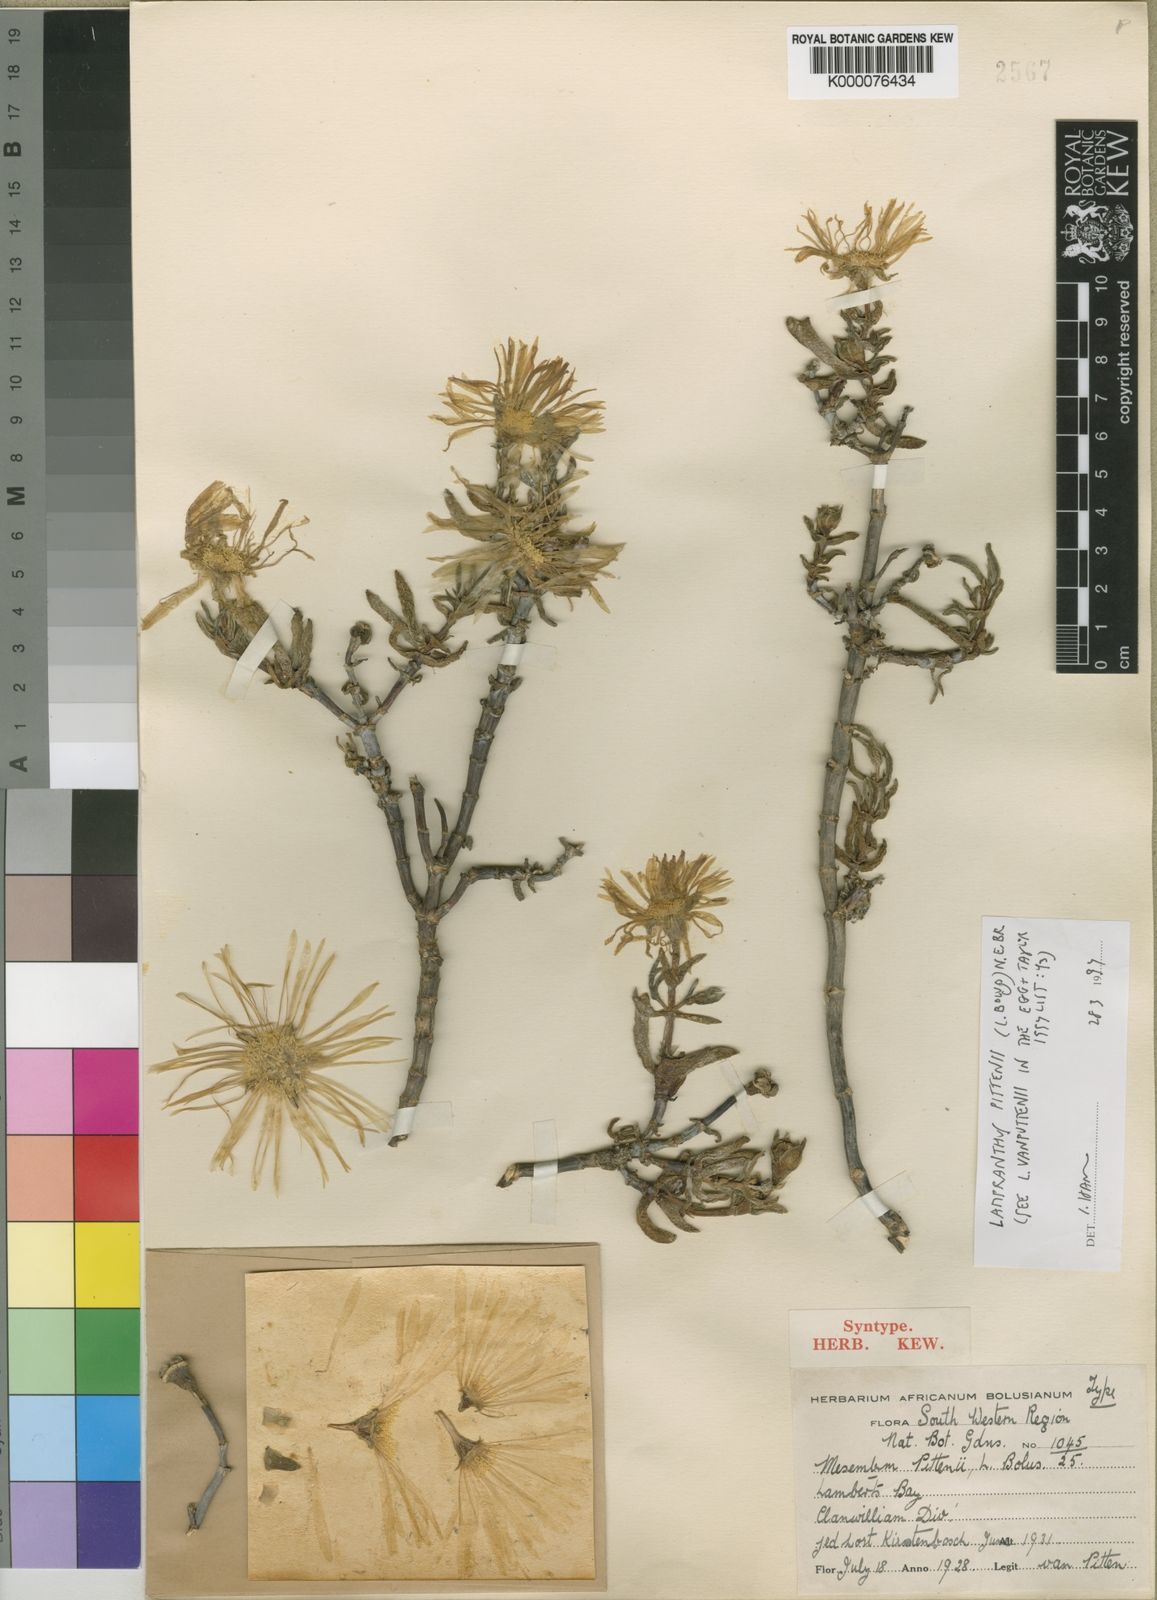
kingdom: Plantae
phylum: Tracheophyta
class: Magnoliopsida
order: Caryophyllales
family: Aizoaceae
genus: Lampranthus
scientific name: Lampranthus
